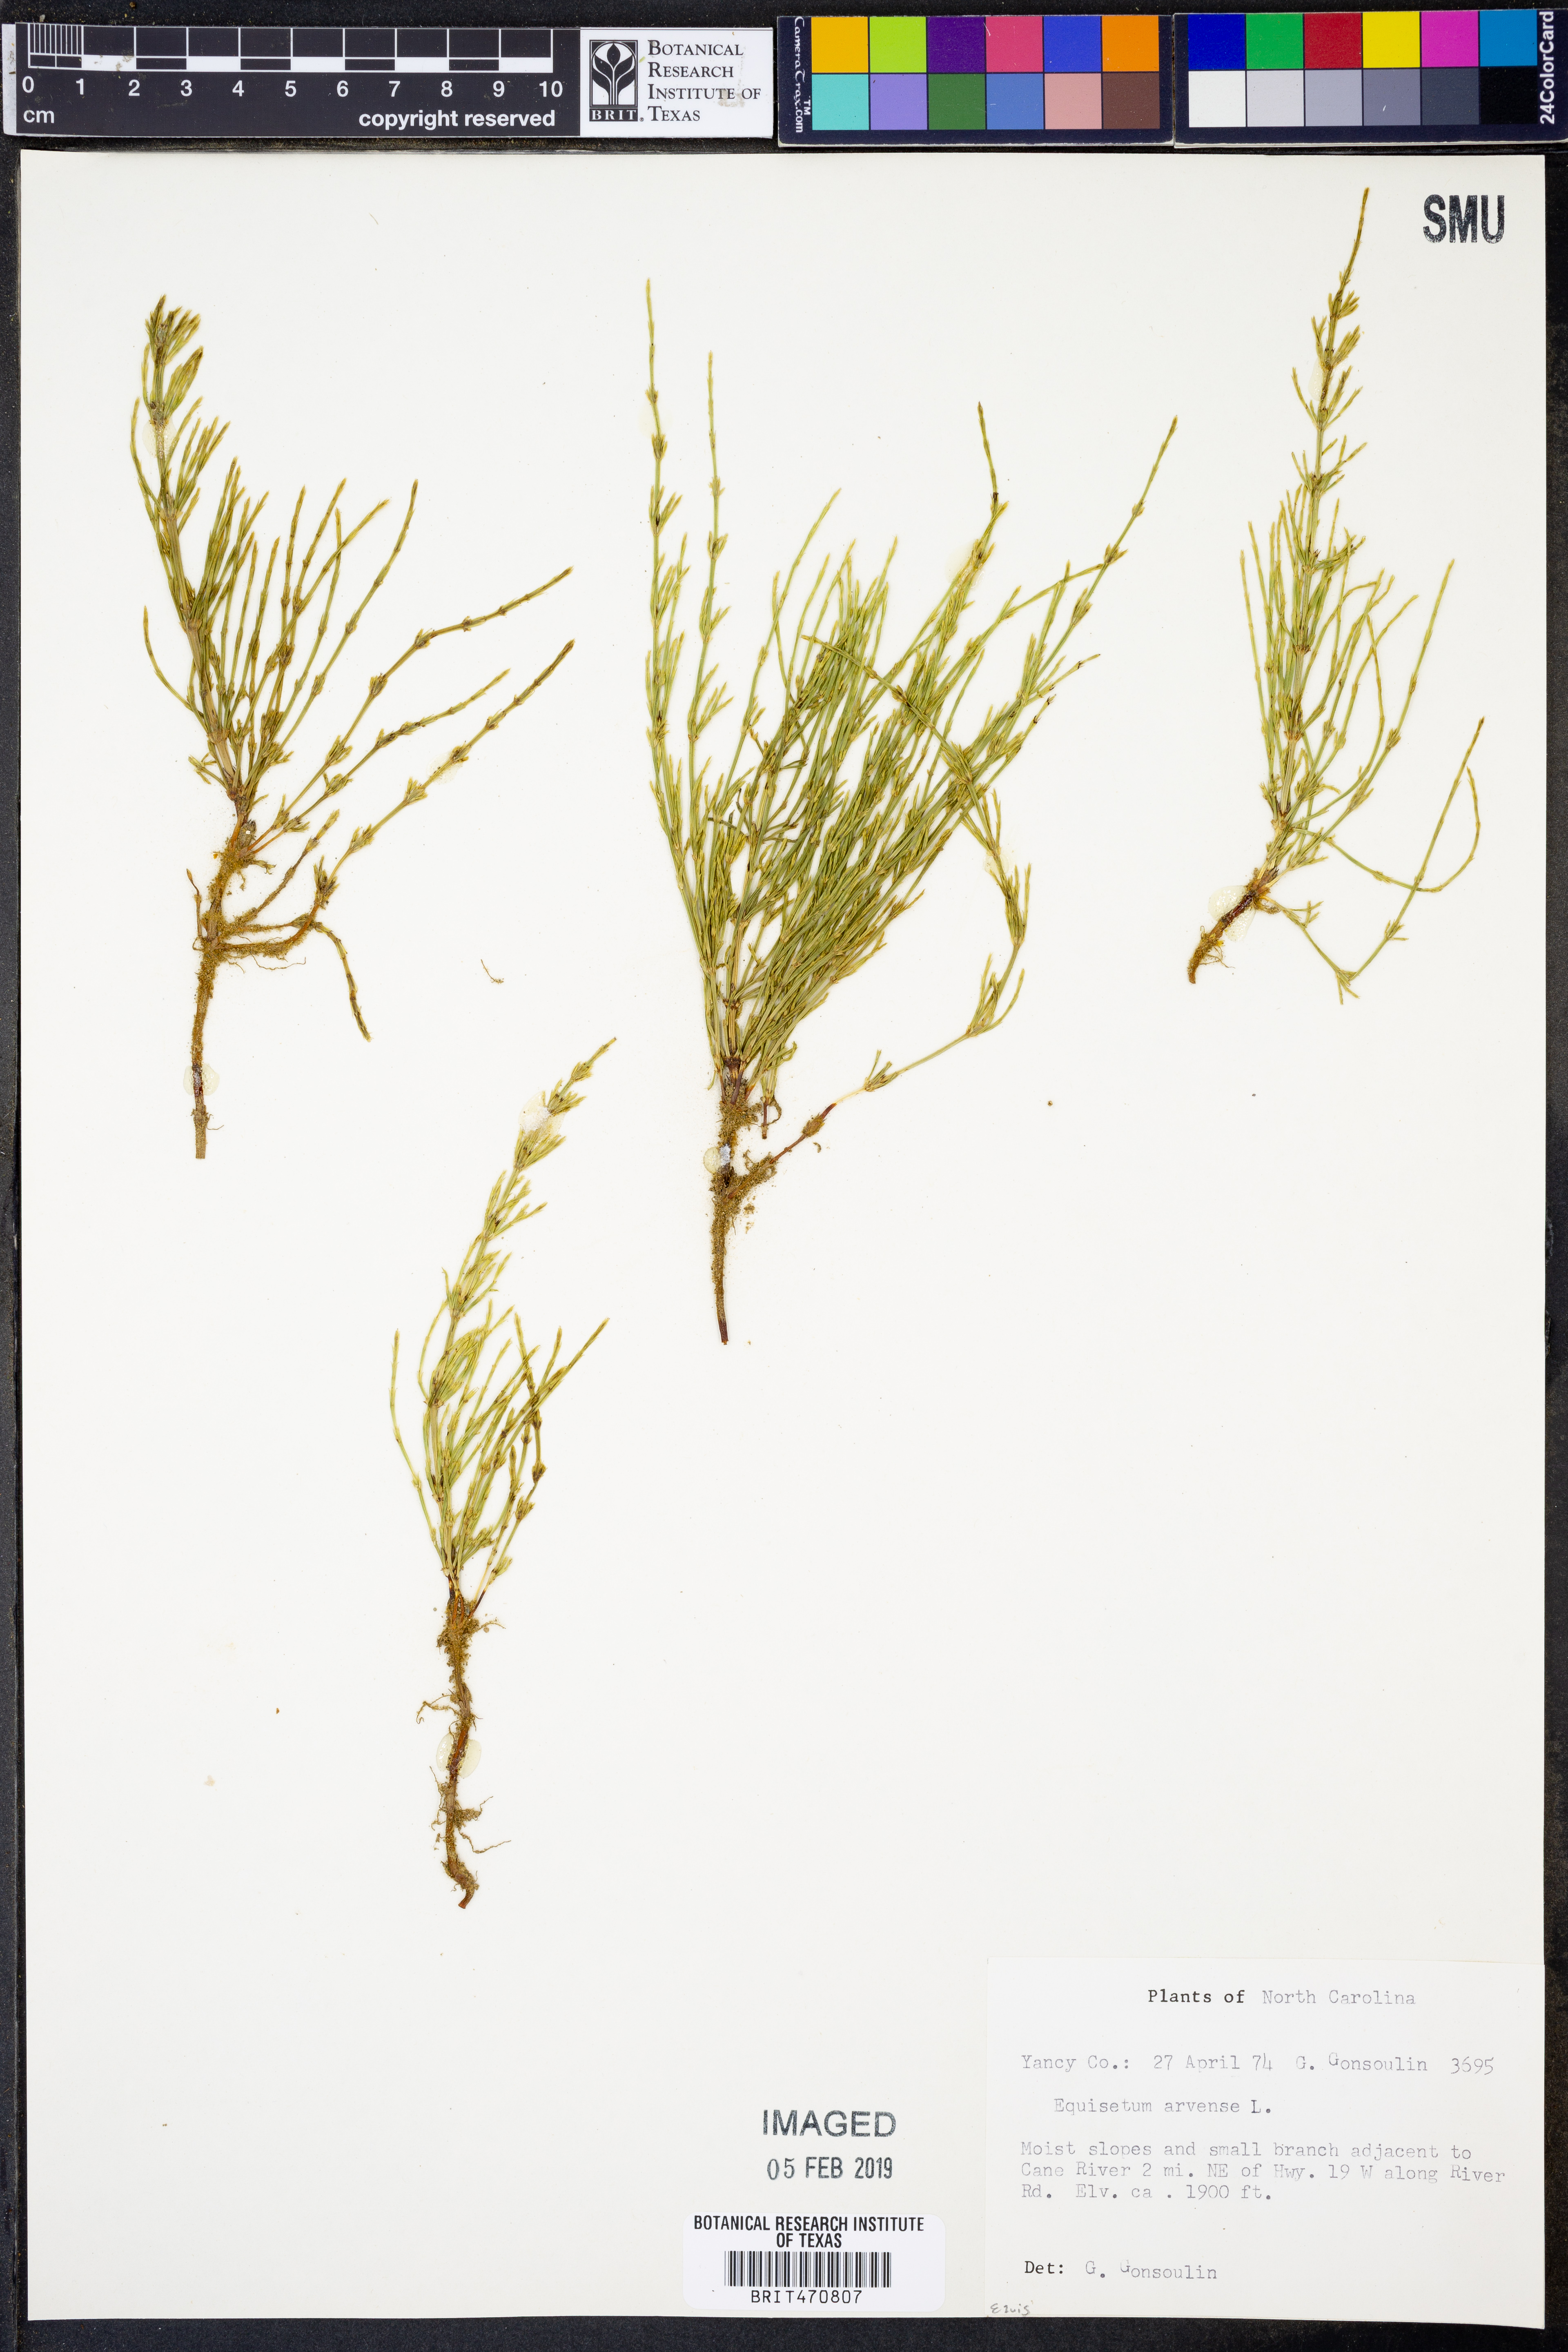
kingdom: Plantae
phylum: Tracheophyta
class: Polypodiopsida
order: Equisetales
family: Equisetaceae
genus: Equisetum
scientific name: Equisetum arvense
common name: Field horsetail
